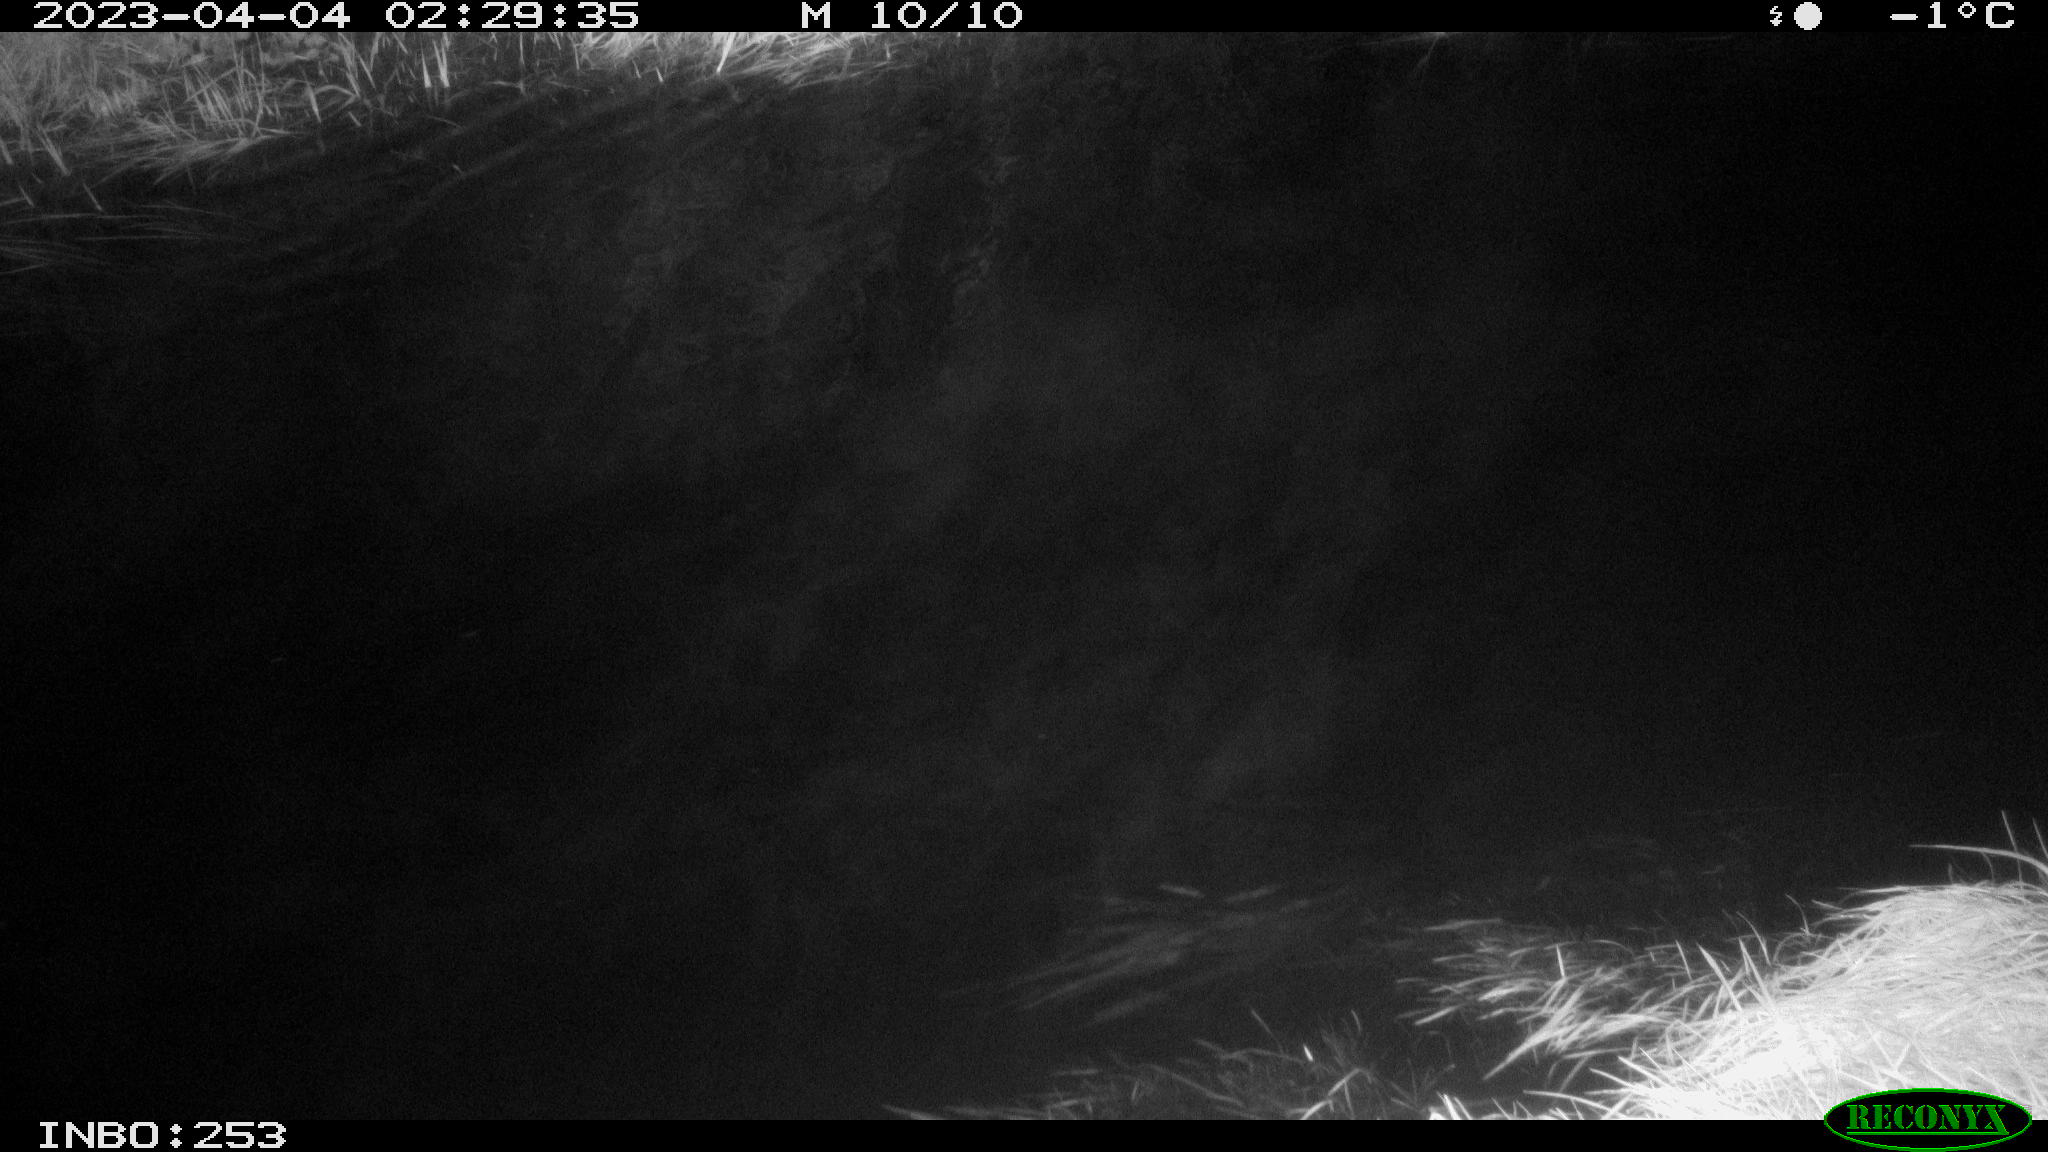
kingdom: Animalia
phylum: Chordata
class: Aves
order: Anseriformes
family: Anatidae
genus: Anas
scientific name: Anas
